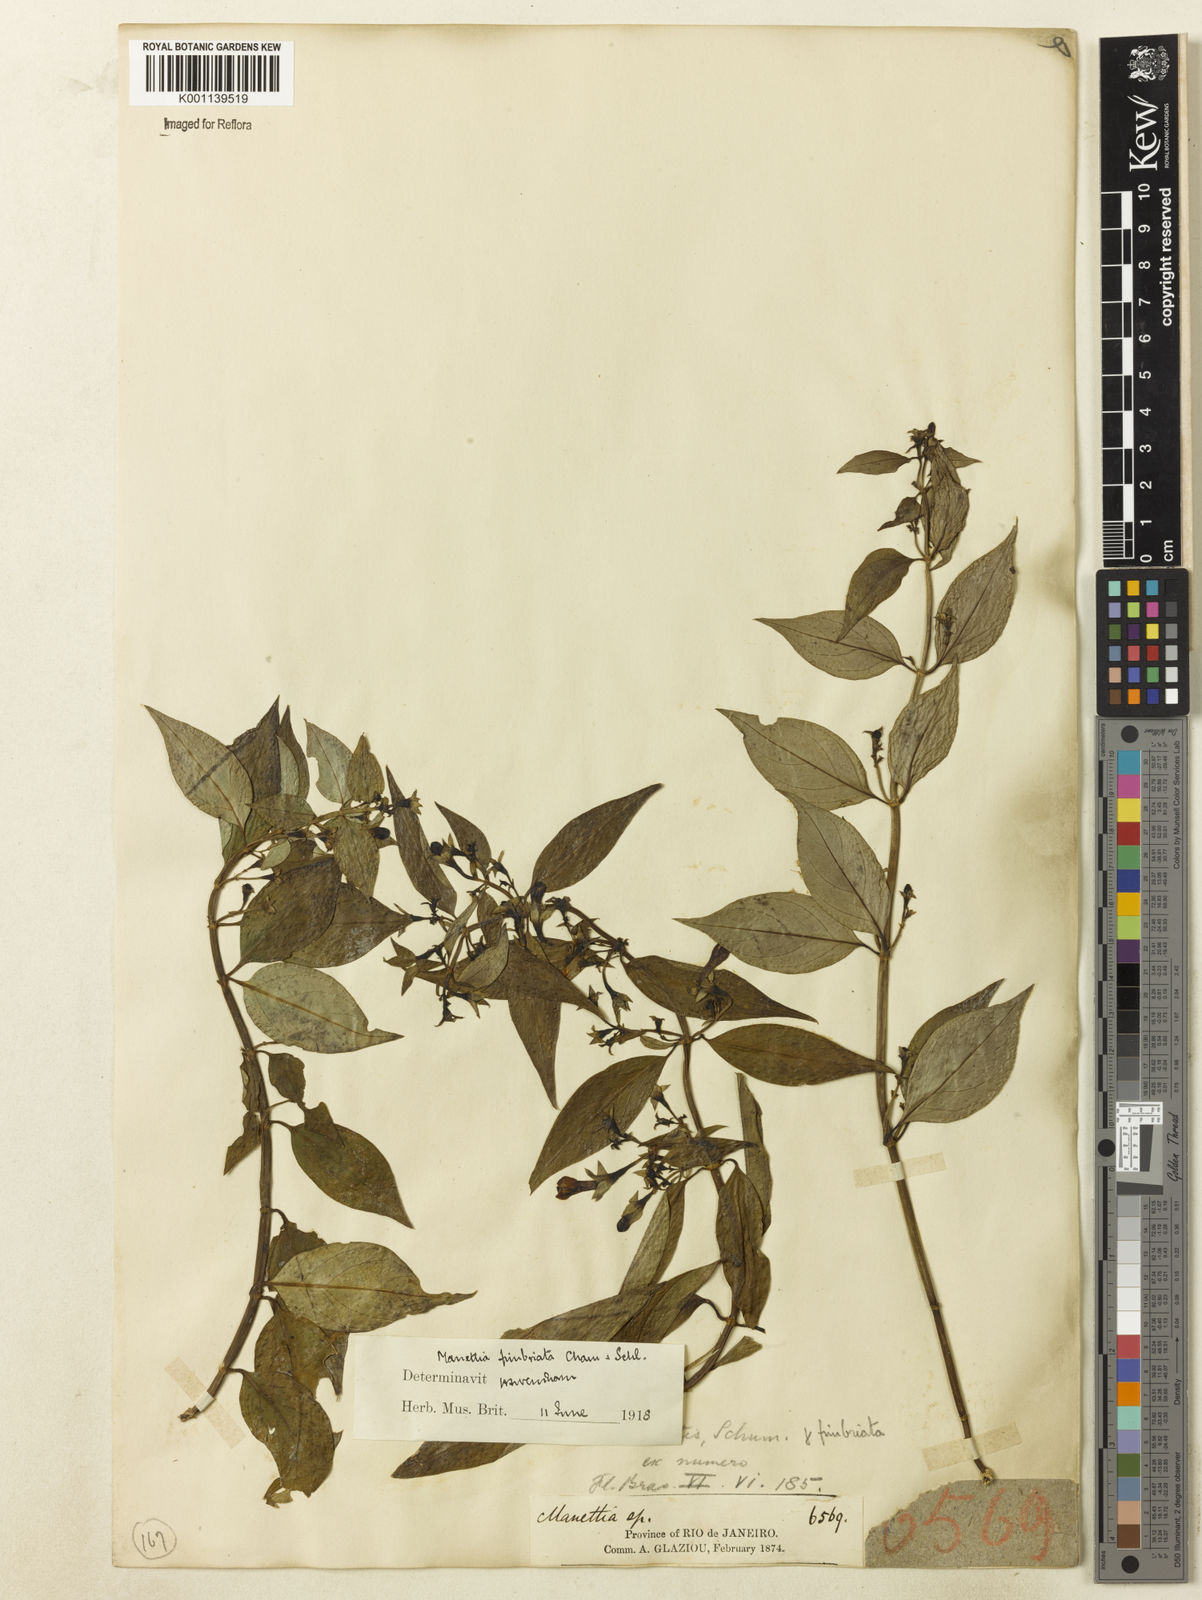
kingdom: Plantae
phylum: Tracheophyta
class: Magnoliopsida
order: Gentianales
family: Rubiaceae
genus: Manettia
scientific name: Manettia fimbriata
